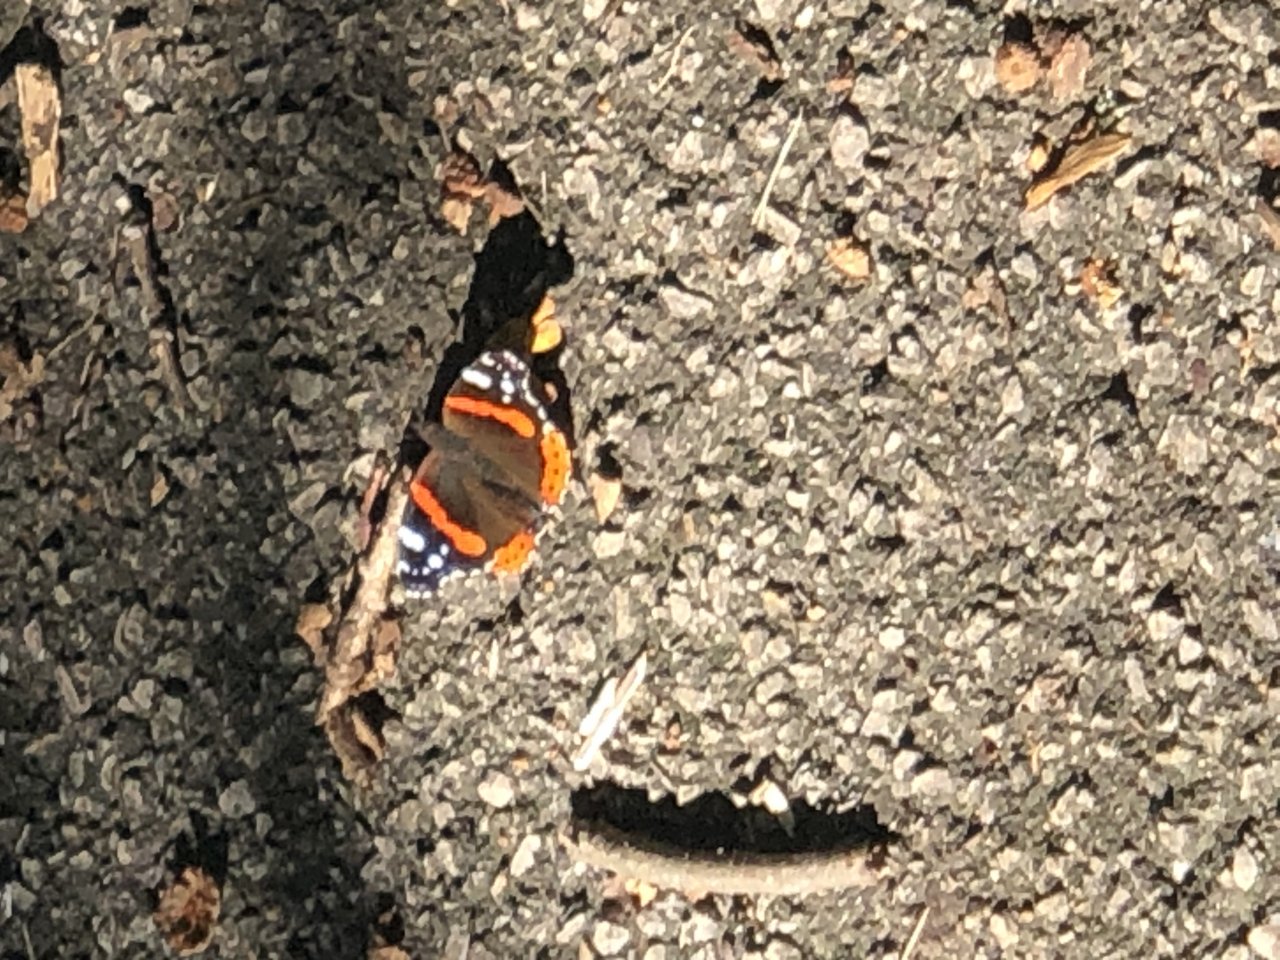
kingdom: Animalia
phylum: Arthropoda
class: Insecta
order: Lepidoptera
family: Nymphalidae
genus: Vanessa
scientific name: Vanessa atalanta
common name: Red Admiral
